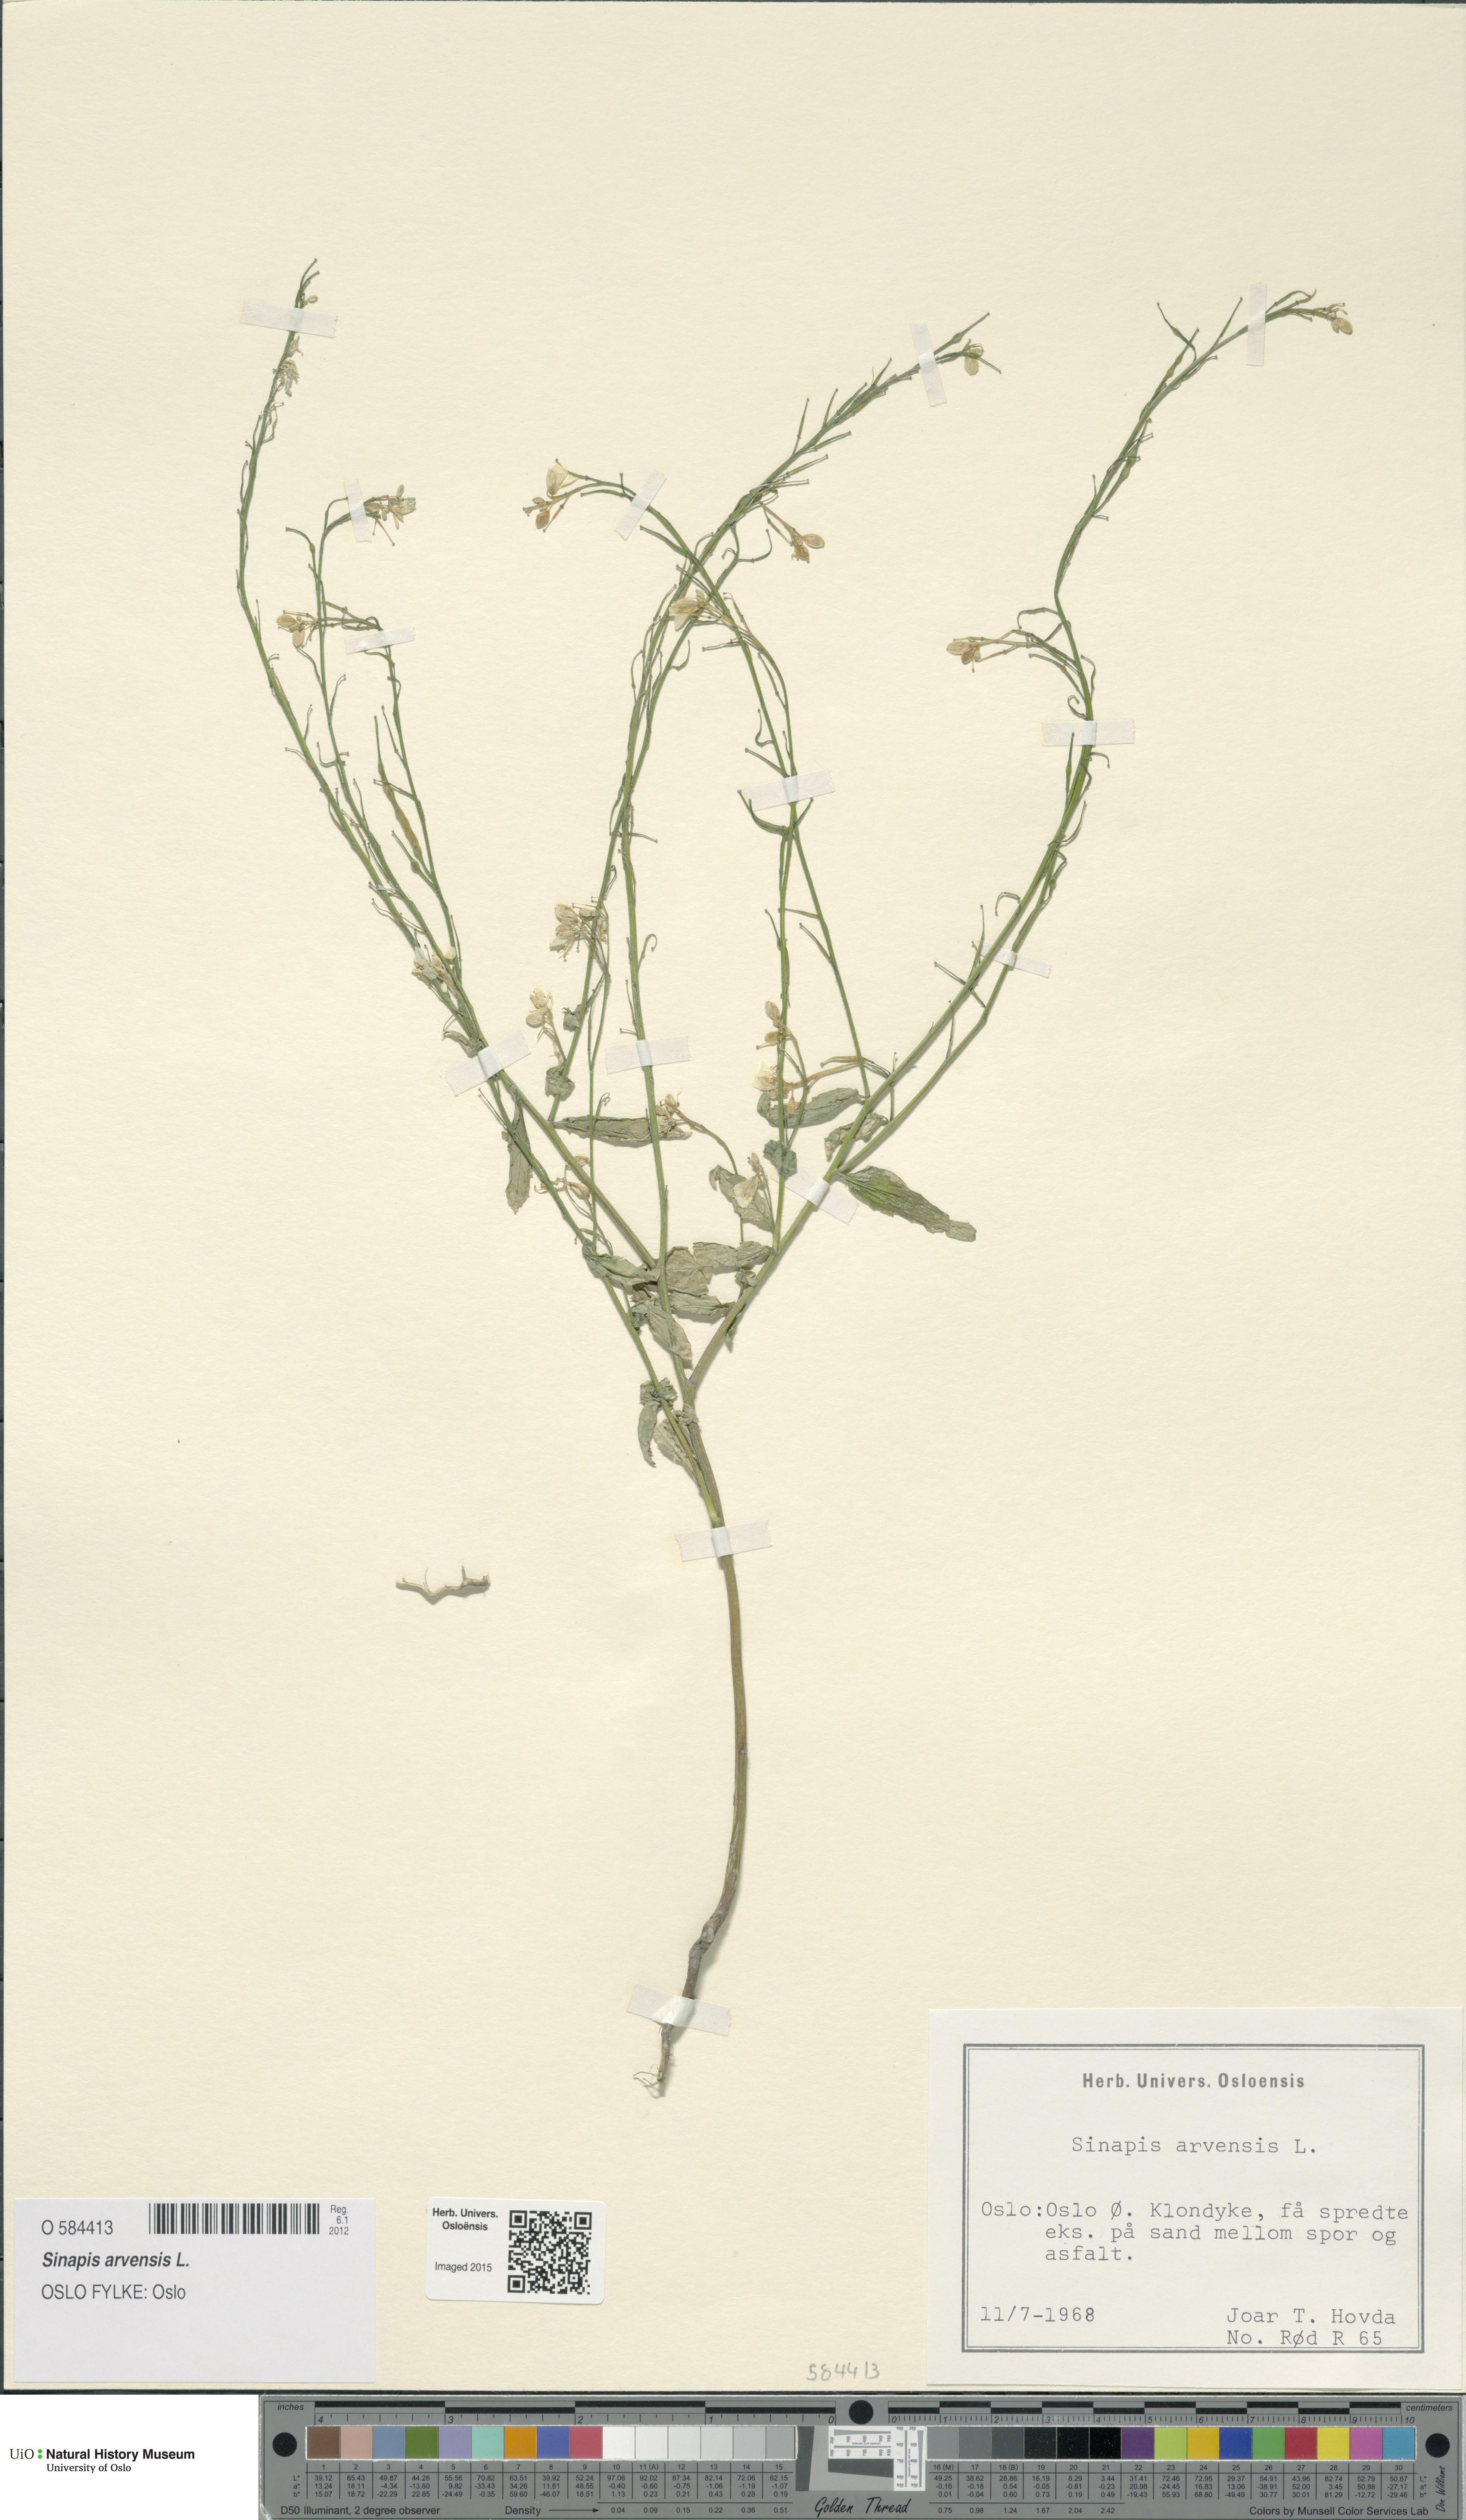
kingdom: Plantae
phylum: Tracheophyta
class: Magnoliopsida
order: Brassicales
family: Brassicaceae
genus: Sinapis
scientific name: Sinapis arvensis
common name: Charlock
